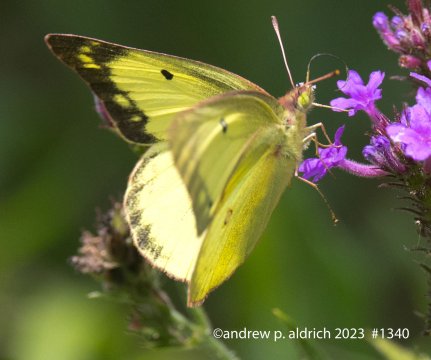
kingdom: Animalia
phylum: Arthropoda
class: Insecta
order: Lepidoptera
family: Pieridae
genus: Colias
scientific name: Colias philodice
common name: Clouded Sulphur
